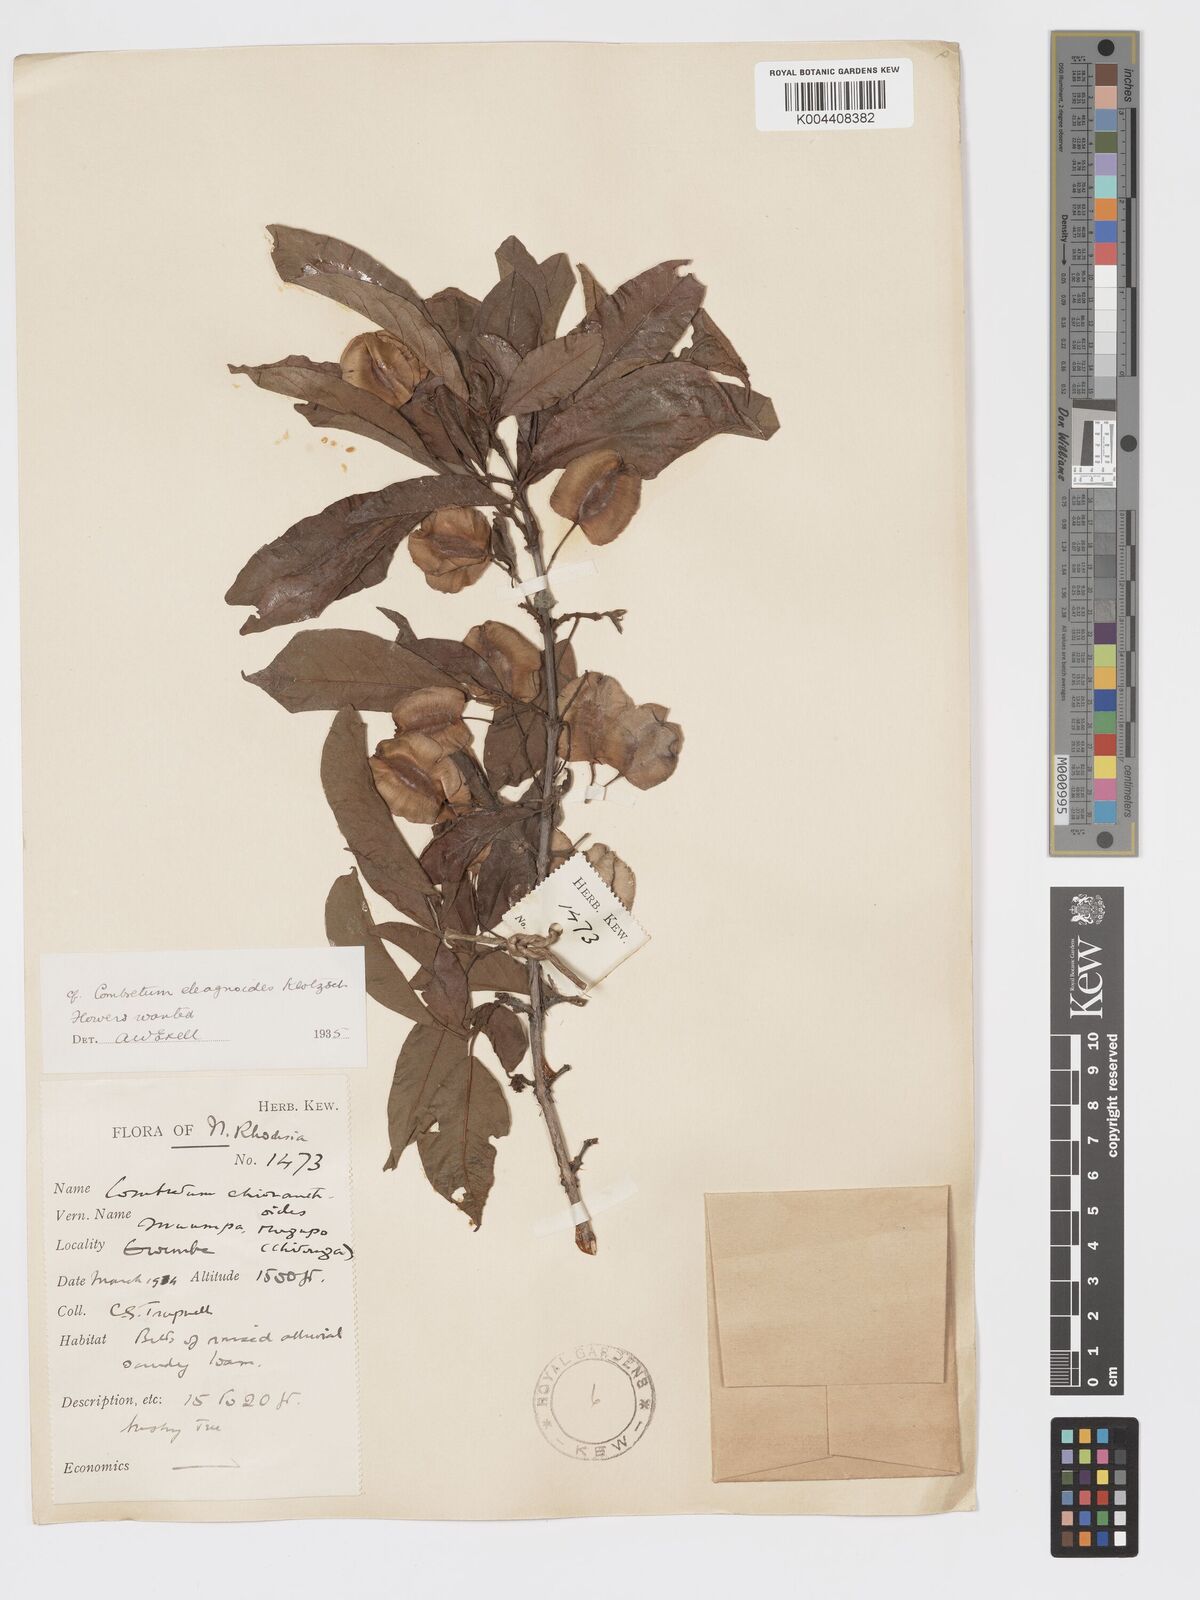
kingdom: Plantae
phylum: Tracheophyta
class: Magnoliopsida
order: Myrtales
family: Combretaceae
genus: Combretum
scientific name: Combretum elaeagnoides
